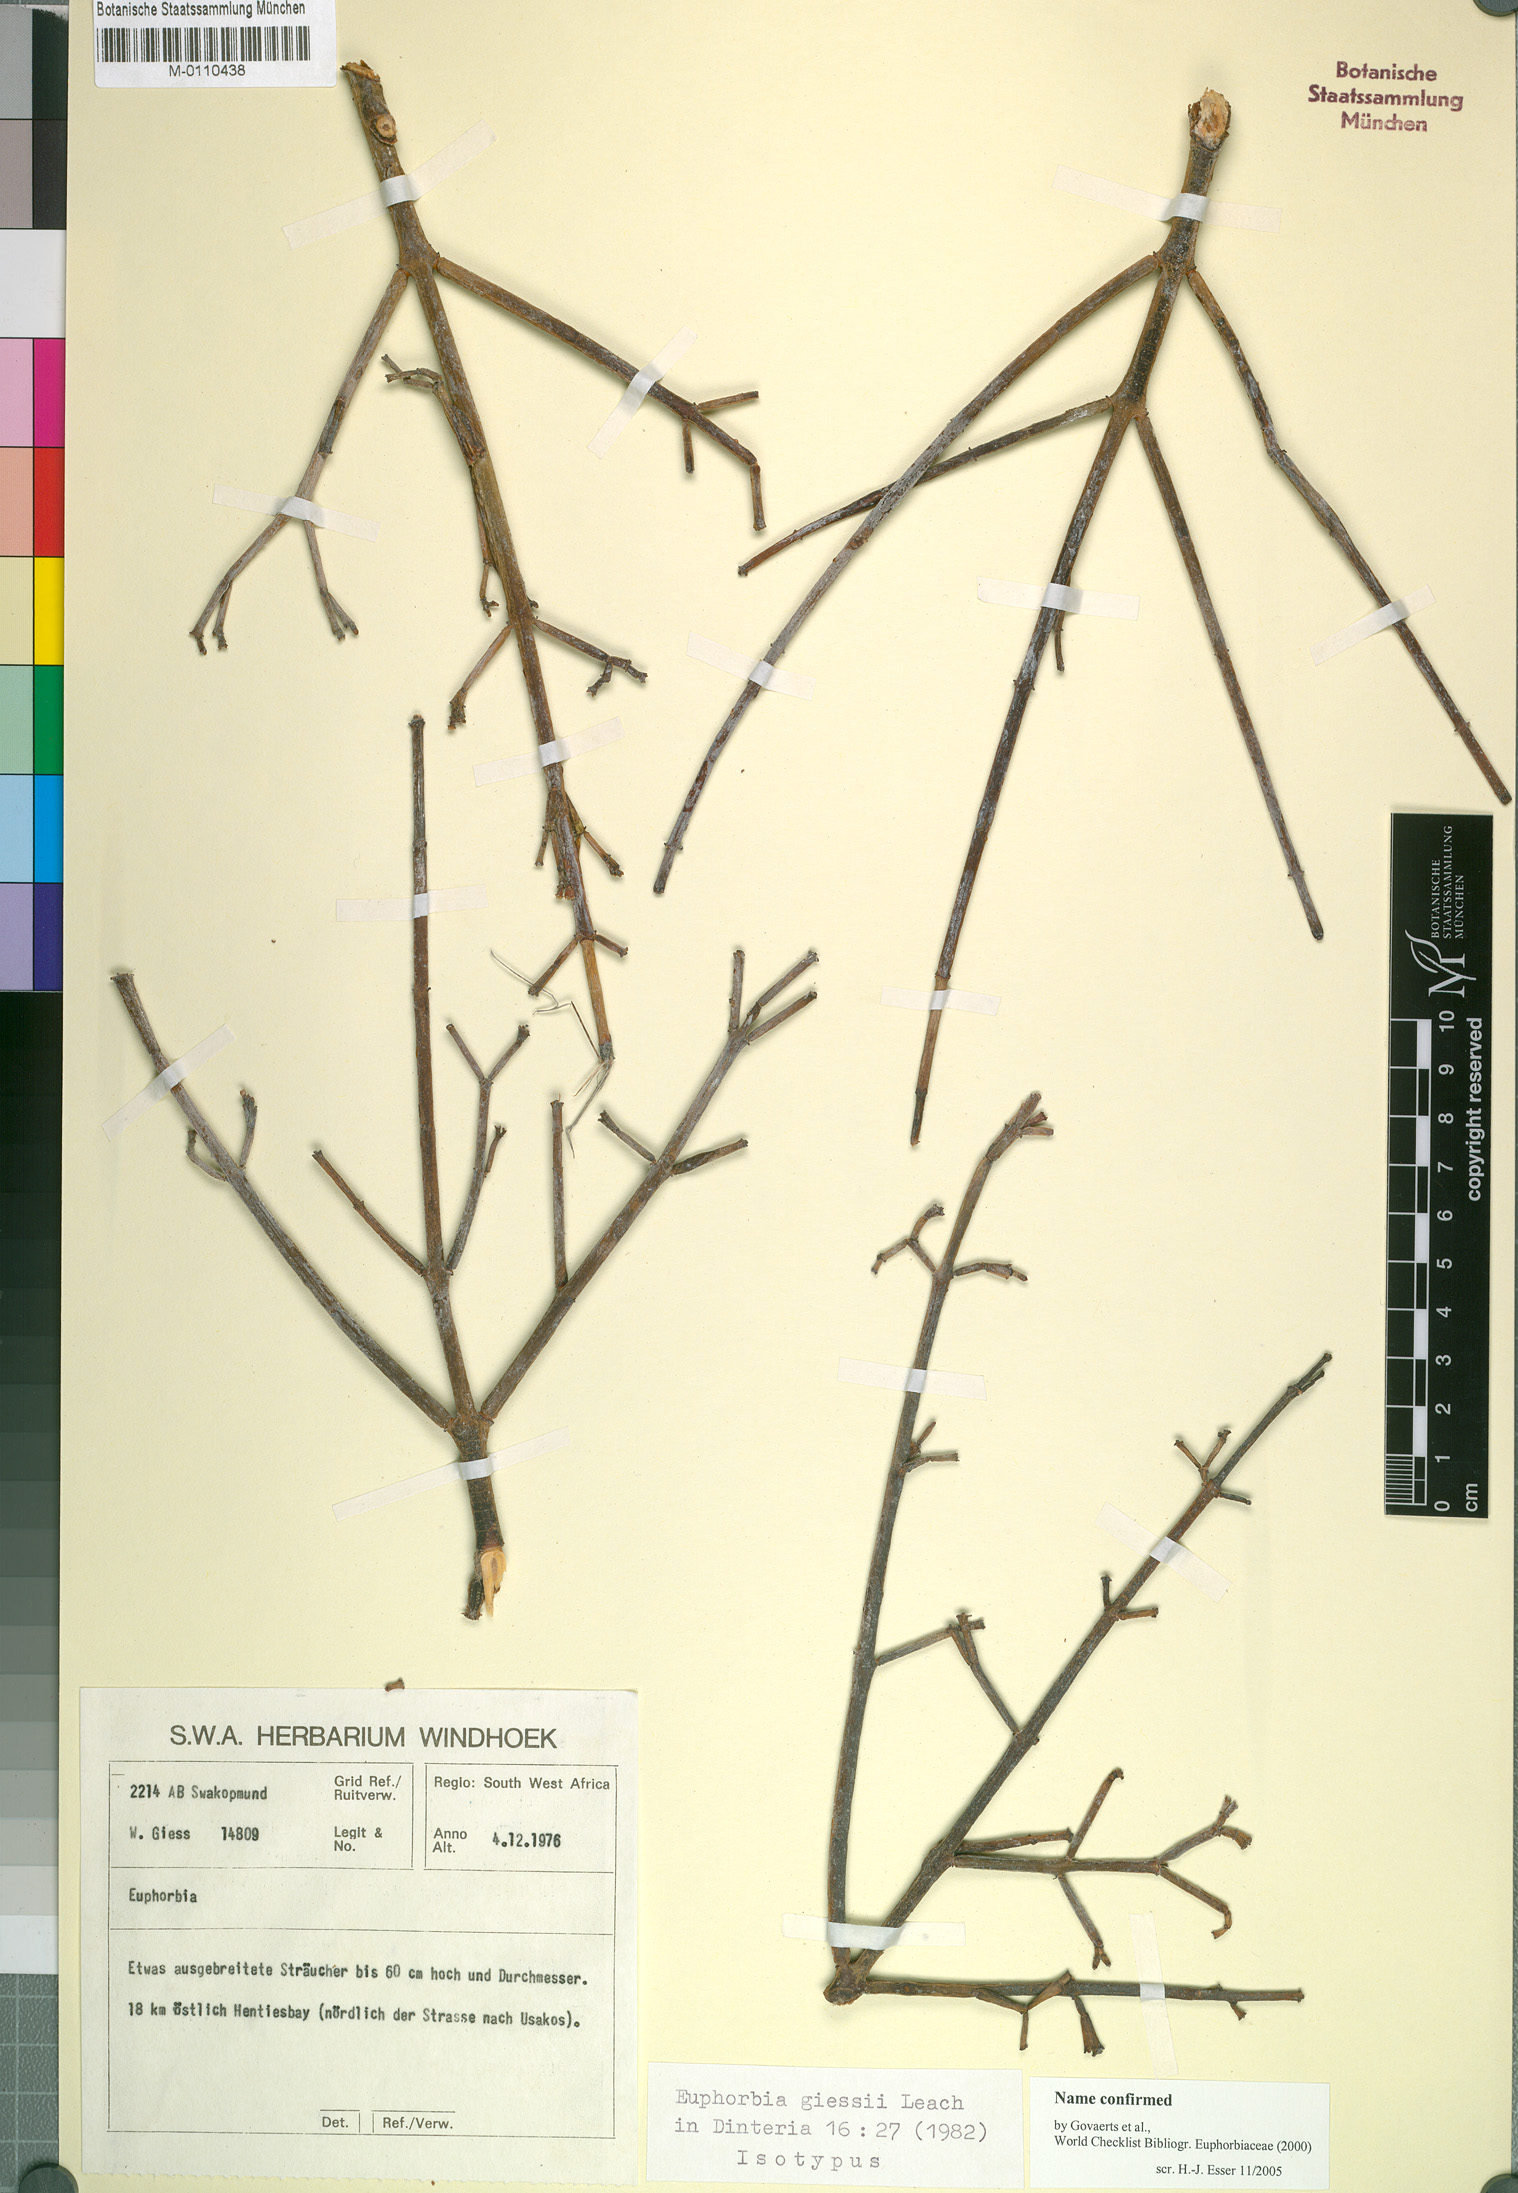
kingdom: Plantae
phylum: Tracheophyta
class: Magnoliopsida
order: Malpighiales
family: Euphorbiaceae
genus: Euphorbia
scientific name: Euphorbia giessii
